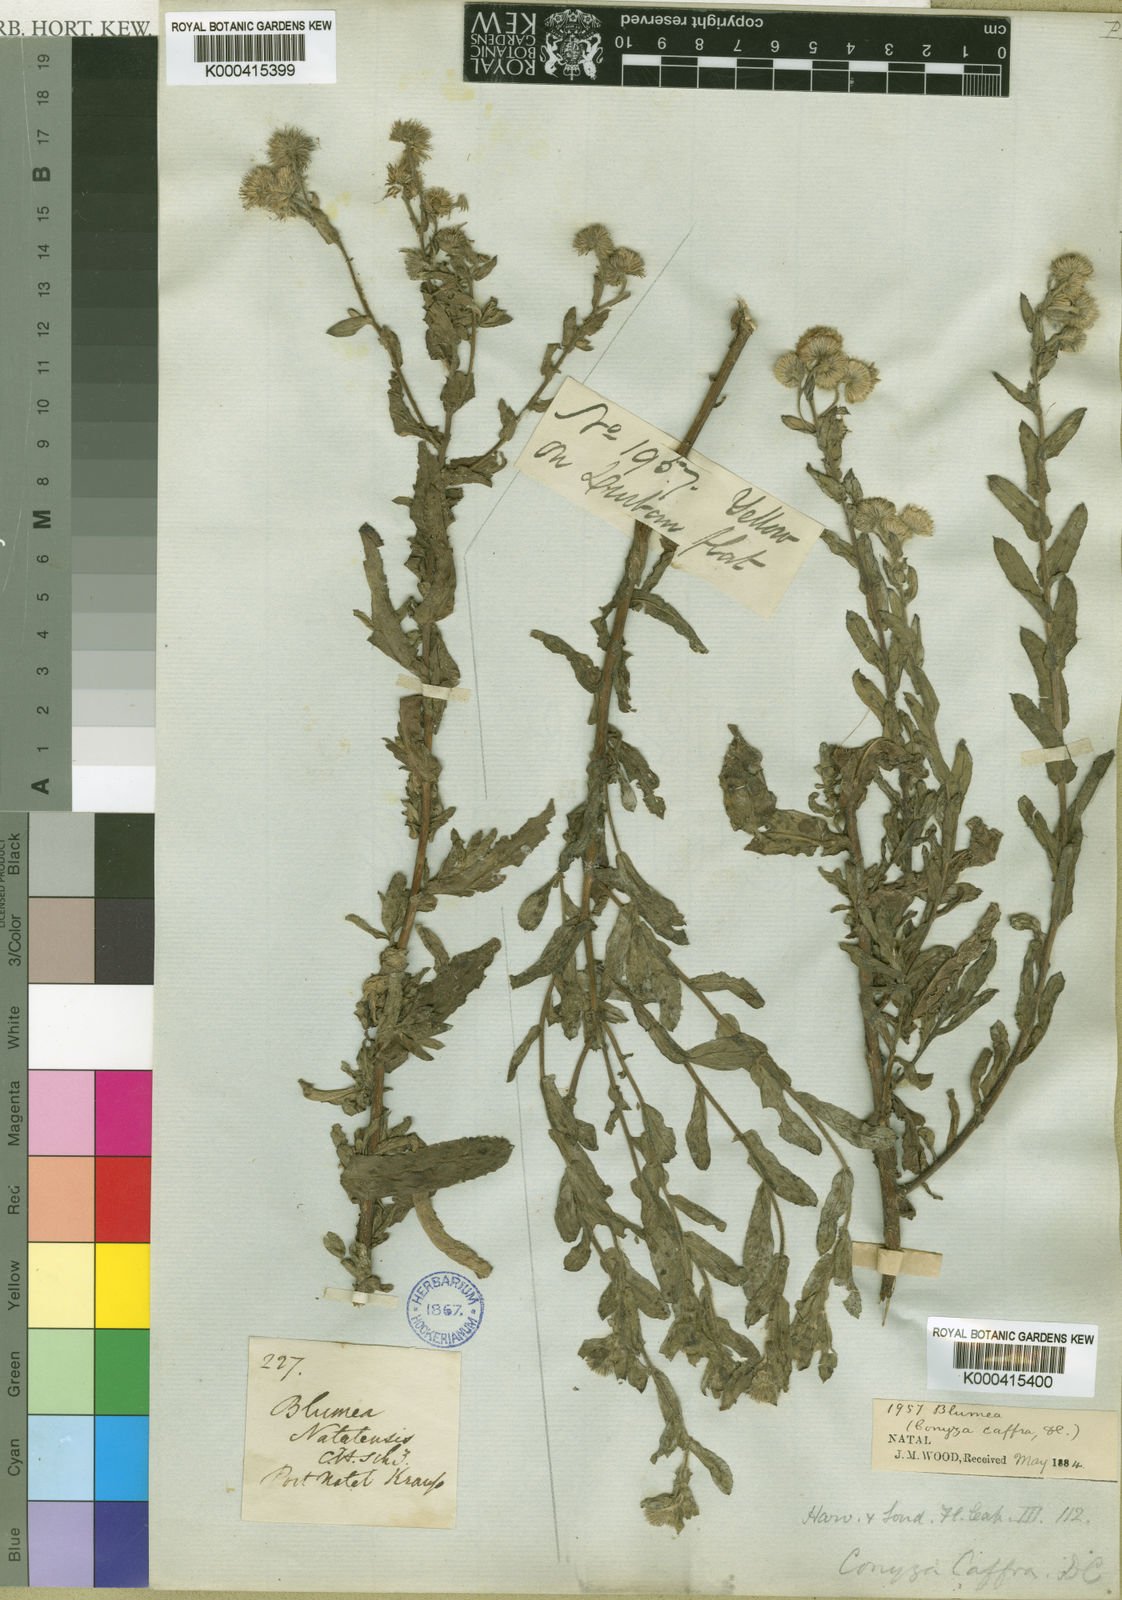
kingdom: Plantae
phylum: Tracheophyta
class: Magnoliopsida
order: Asterales
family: Asteraceae
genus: Doellia
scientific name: Doellia cafra
